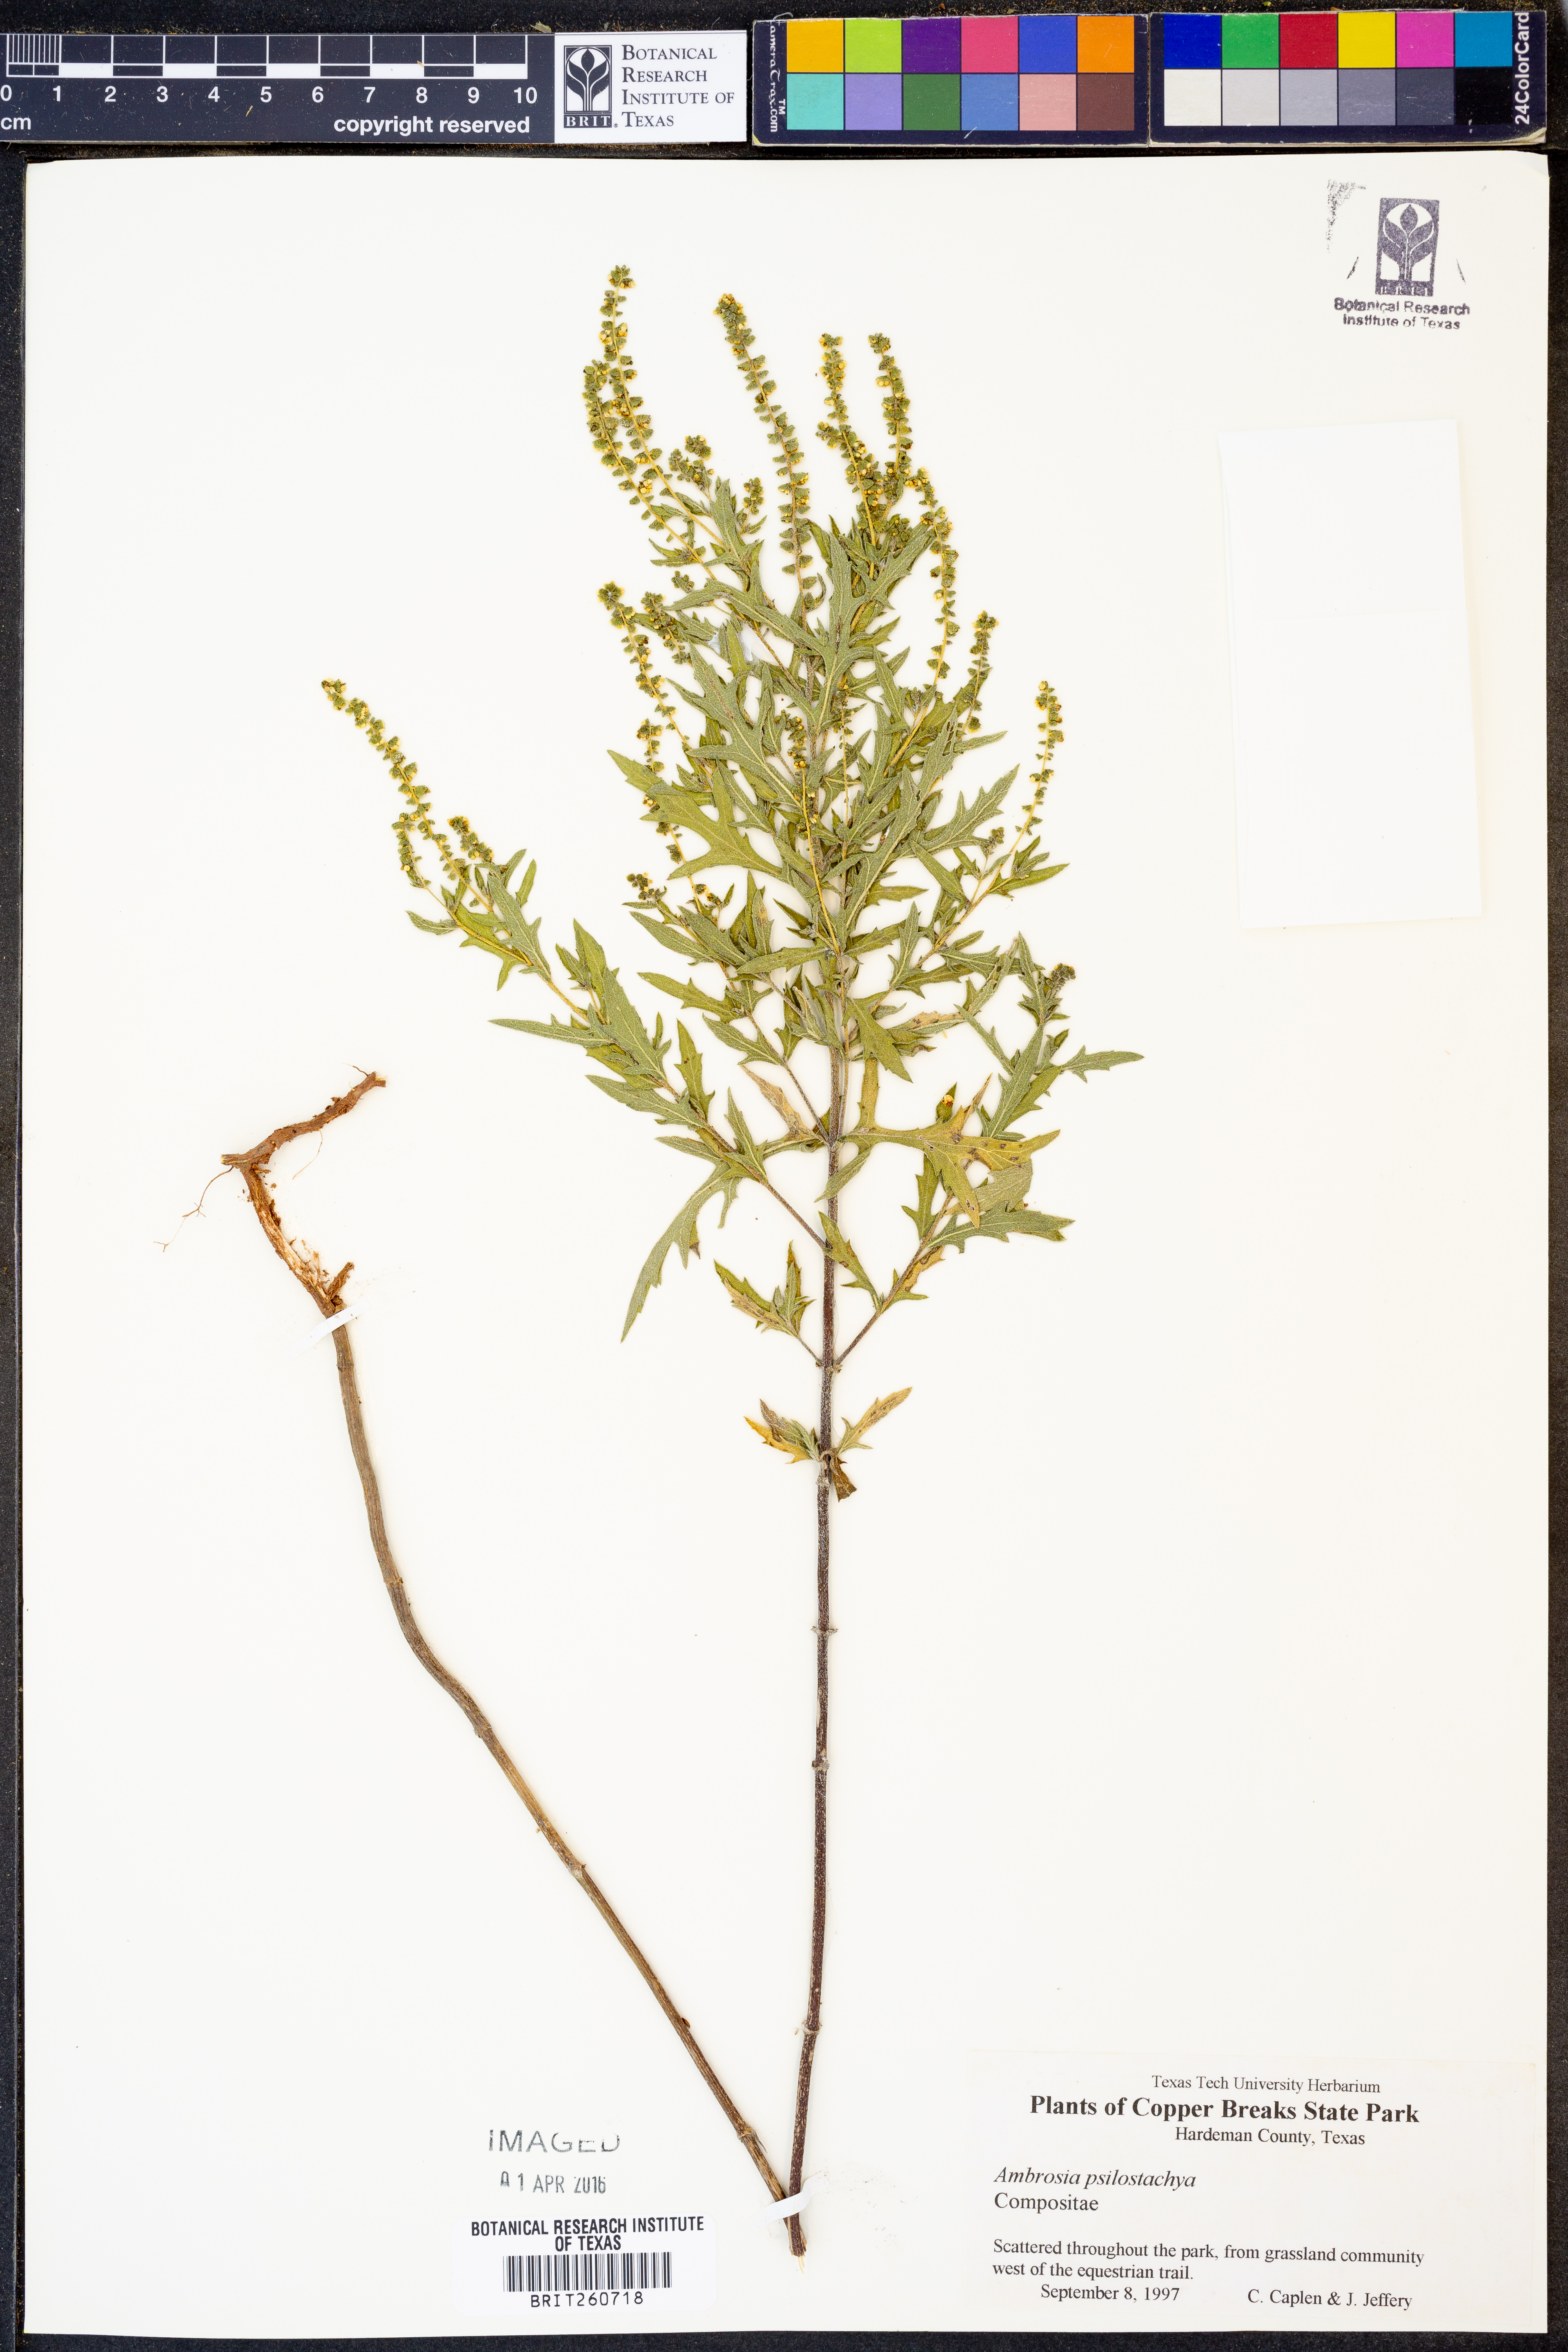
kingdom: Plantae
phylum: Tracheophyta
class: Magnoliopsida
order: Asterales
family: Asteraceae
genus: Ambrosia
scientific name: Ambrosia psilostachya
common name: Perennial ragweed
